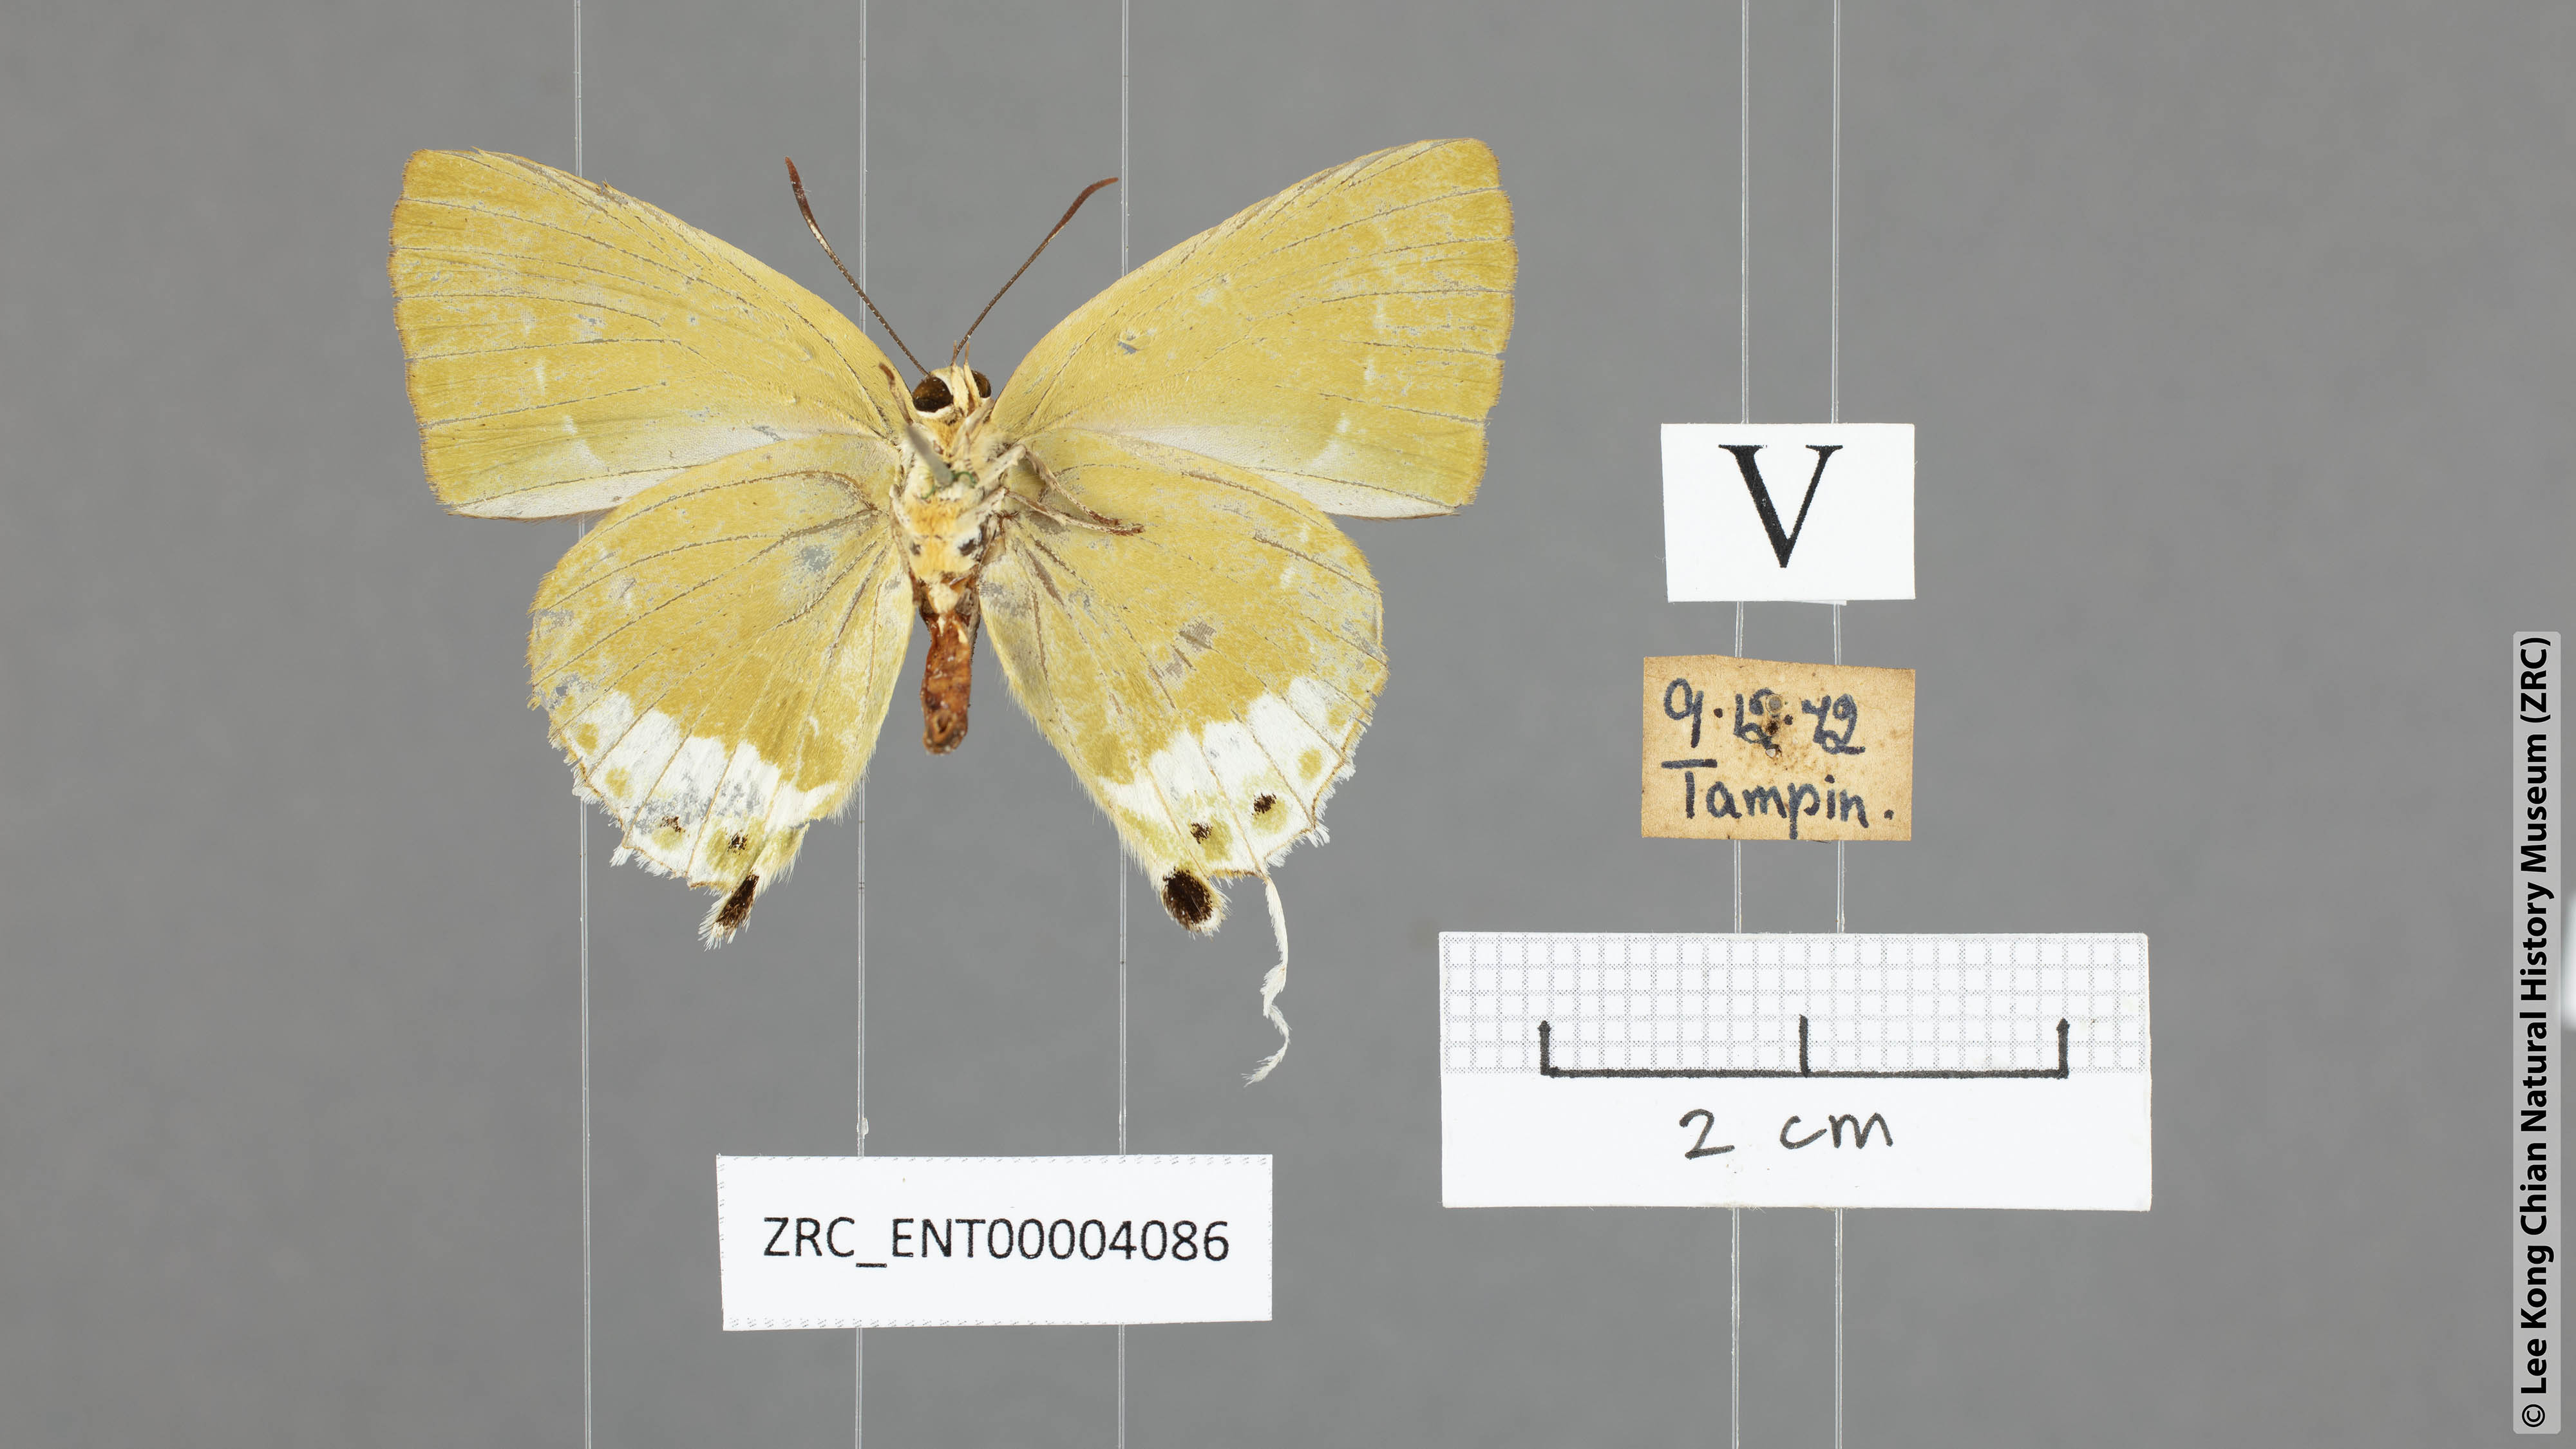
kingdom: Animalia
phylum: Arthropoda
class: Insecta
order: Lepidoptera
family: Lycaenidae
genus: Artipe
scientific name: Artipe eryx
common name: Green flash
